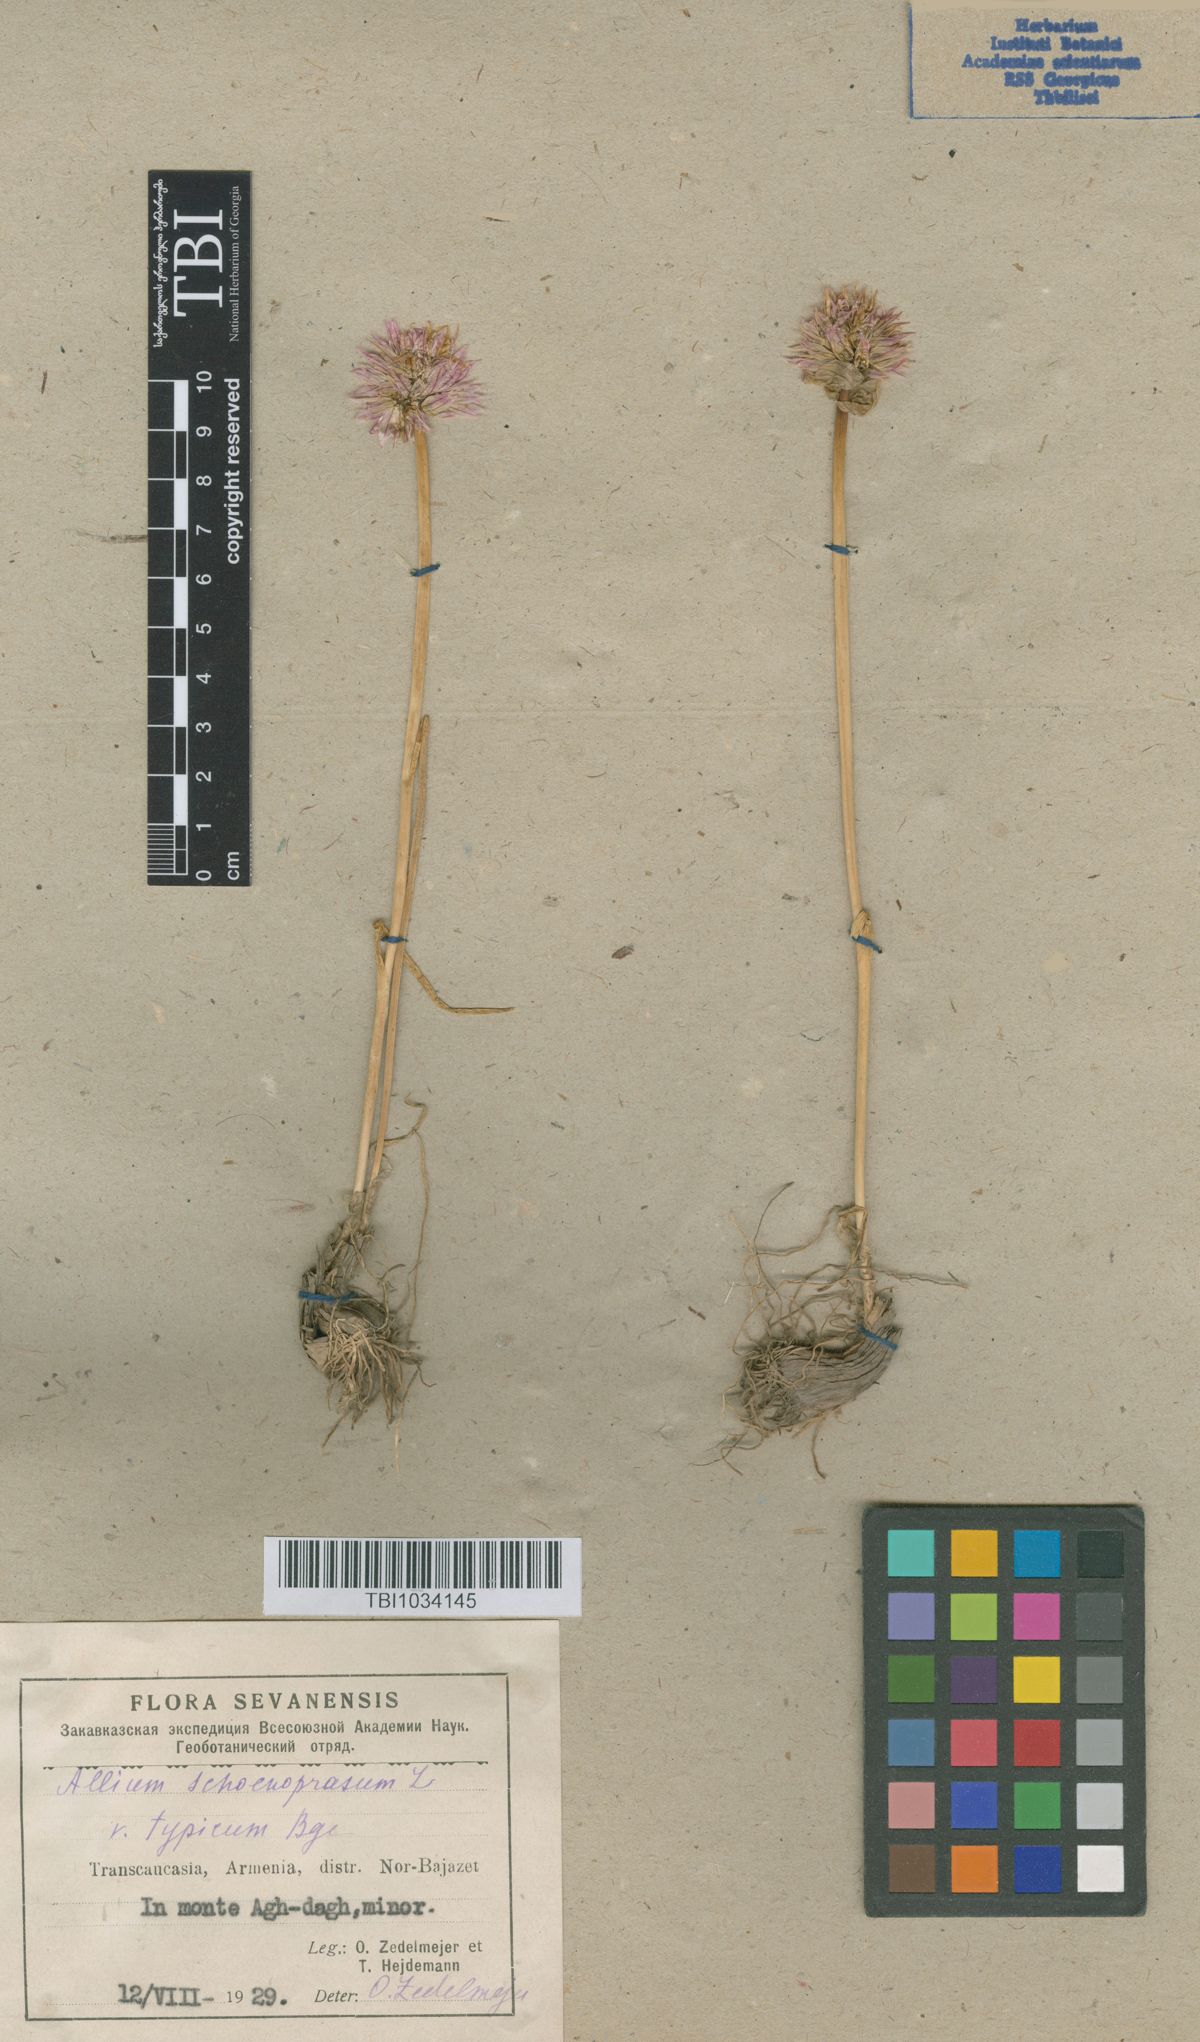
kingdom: Plantae
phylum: Tracheophyta
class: Liliopsida
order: Asparagales
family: Amaryllidaceae
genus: Allium
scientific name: Allium schoenoprasum
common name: Chives
